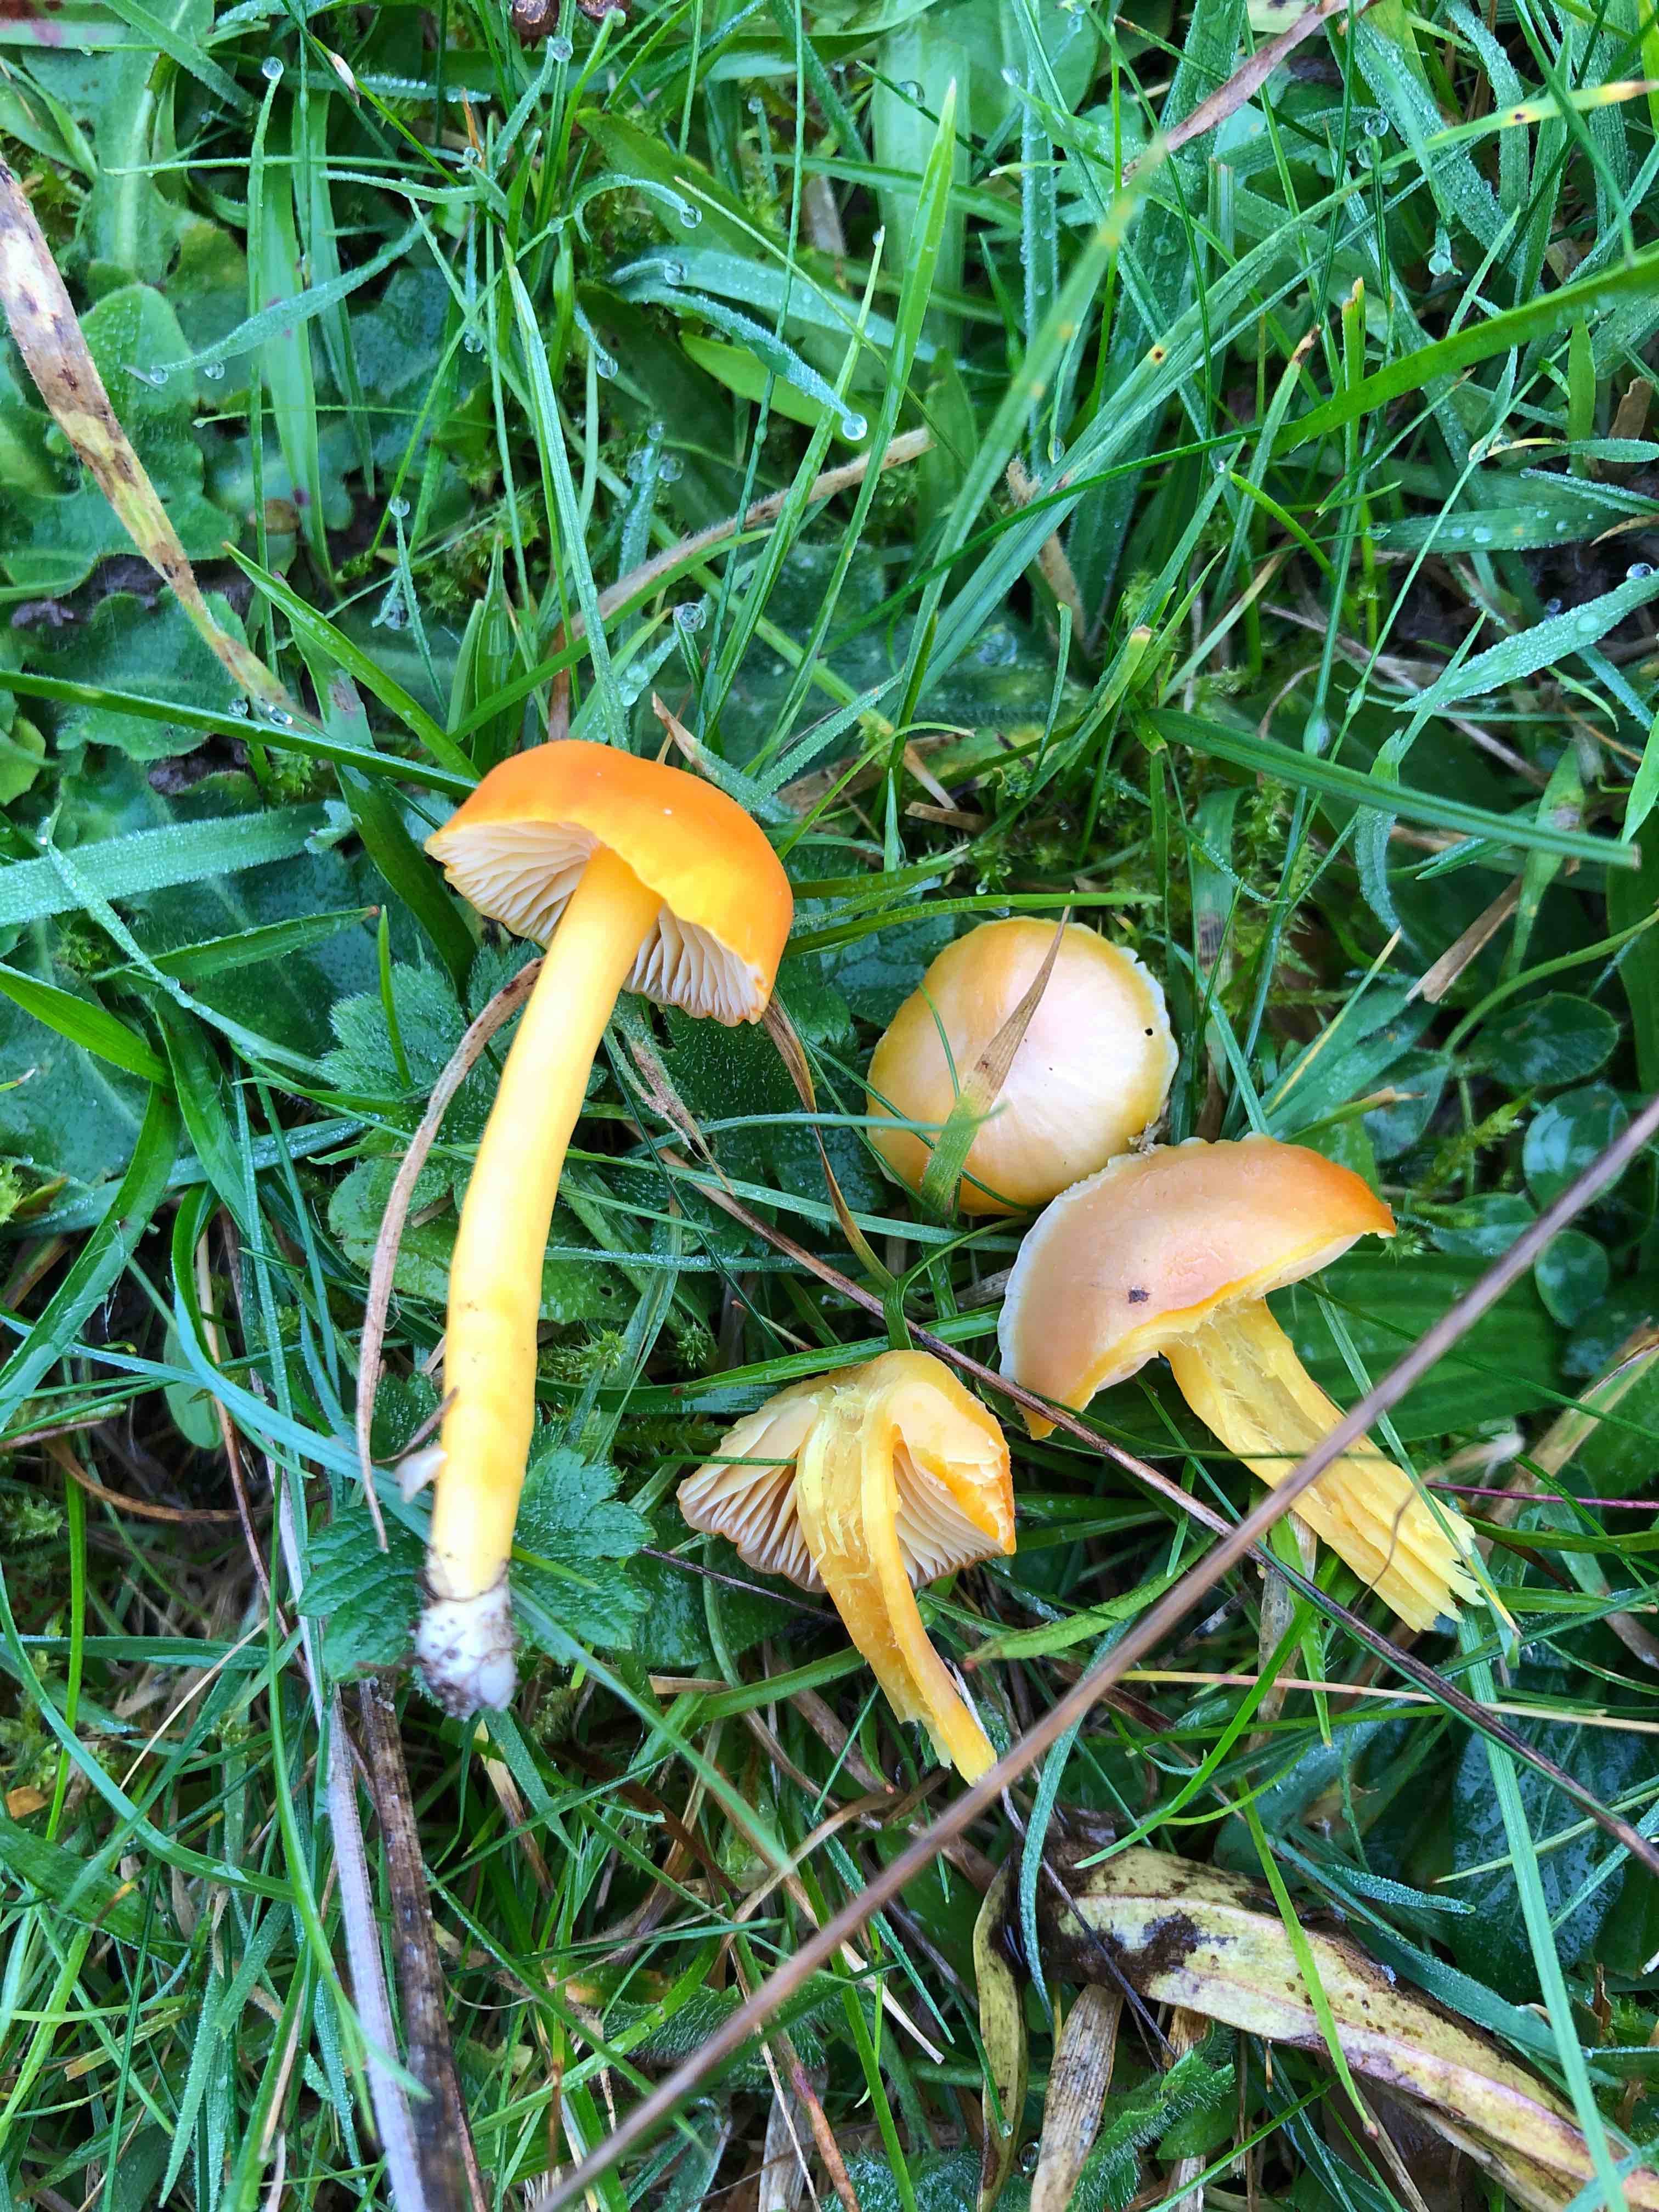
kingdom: Fungi
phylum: Basidiomycota
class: Agaricomycetes
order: Agaricales
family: Hygrophoraceae
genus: Hygrocybe
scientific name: Hygrocybe reidii
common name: honning-vokshat
